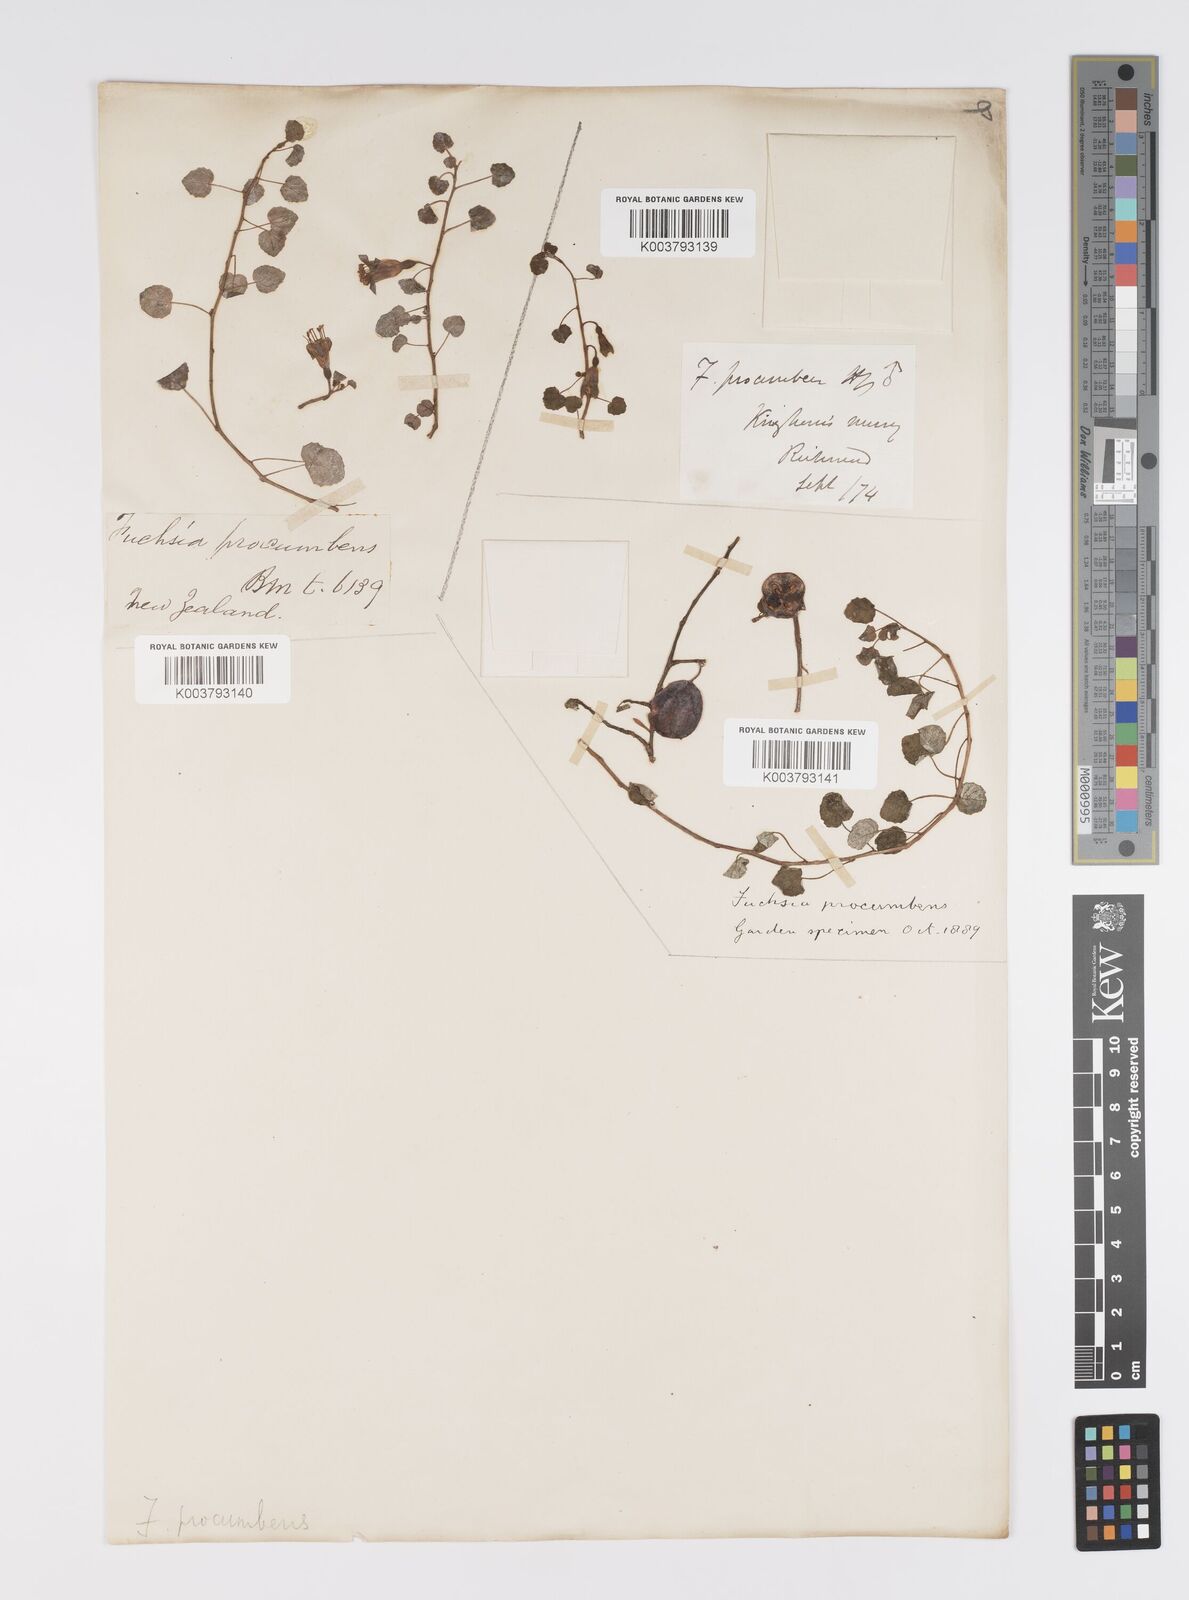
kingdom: Plantae
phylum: Tracheophyta
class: Magnoliopsida
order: Myrtales
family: Onagraceae
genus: Fuchsia
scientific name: Fuchsia procumbens
